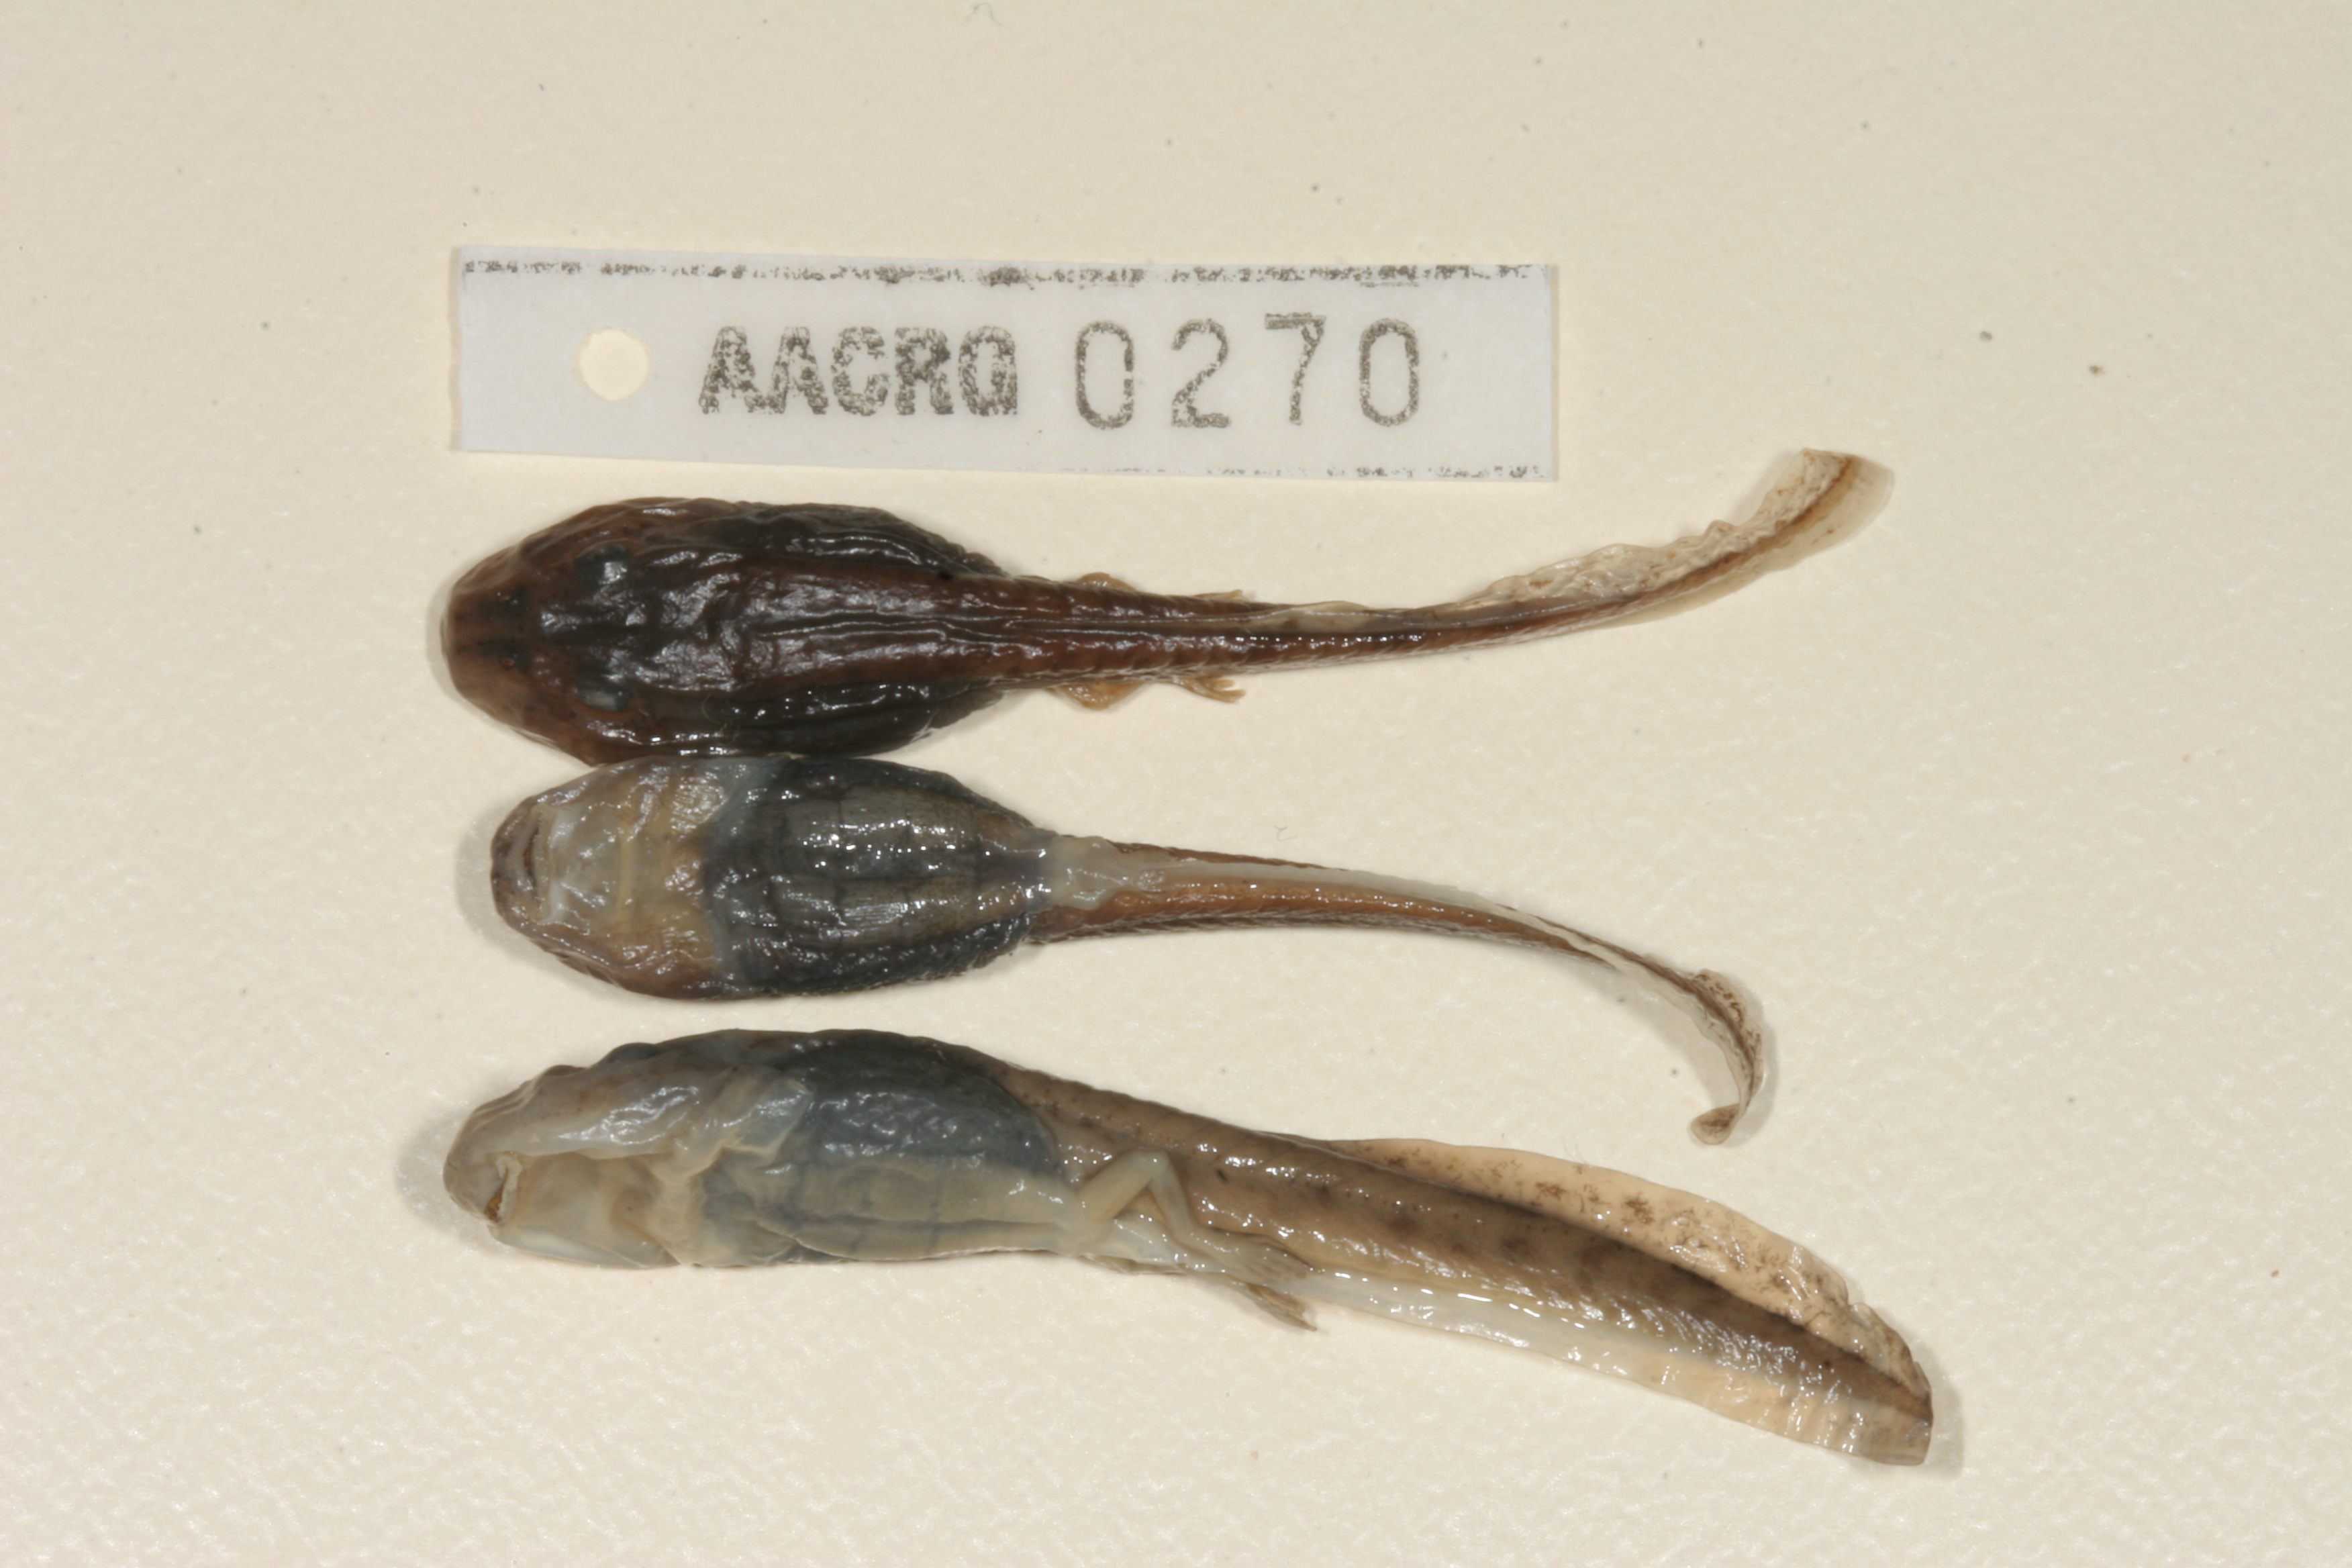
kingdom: Animalia
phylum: Chordata
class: Amphibia
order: Anura
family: Pyxicephalidae
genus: Amietia
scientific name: Amietia vertebralis
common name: Drakensberg stream frog
